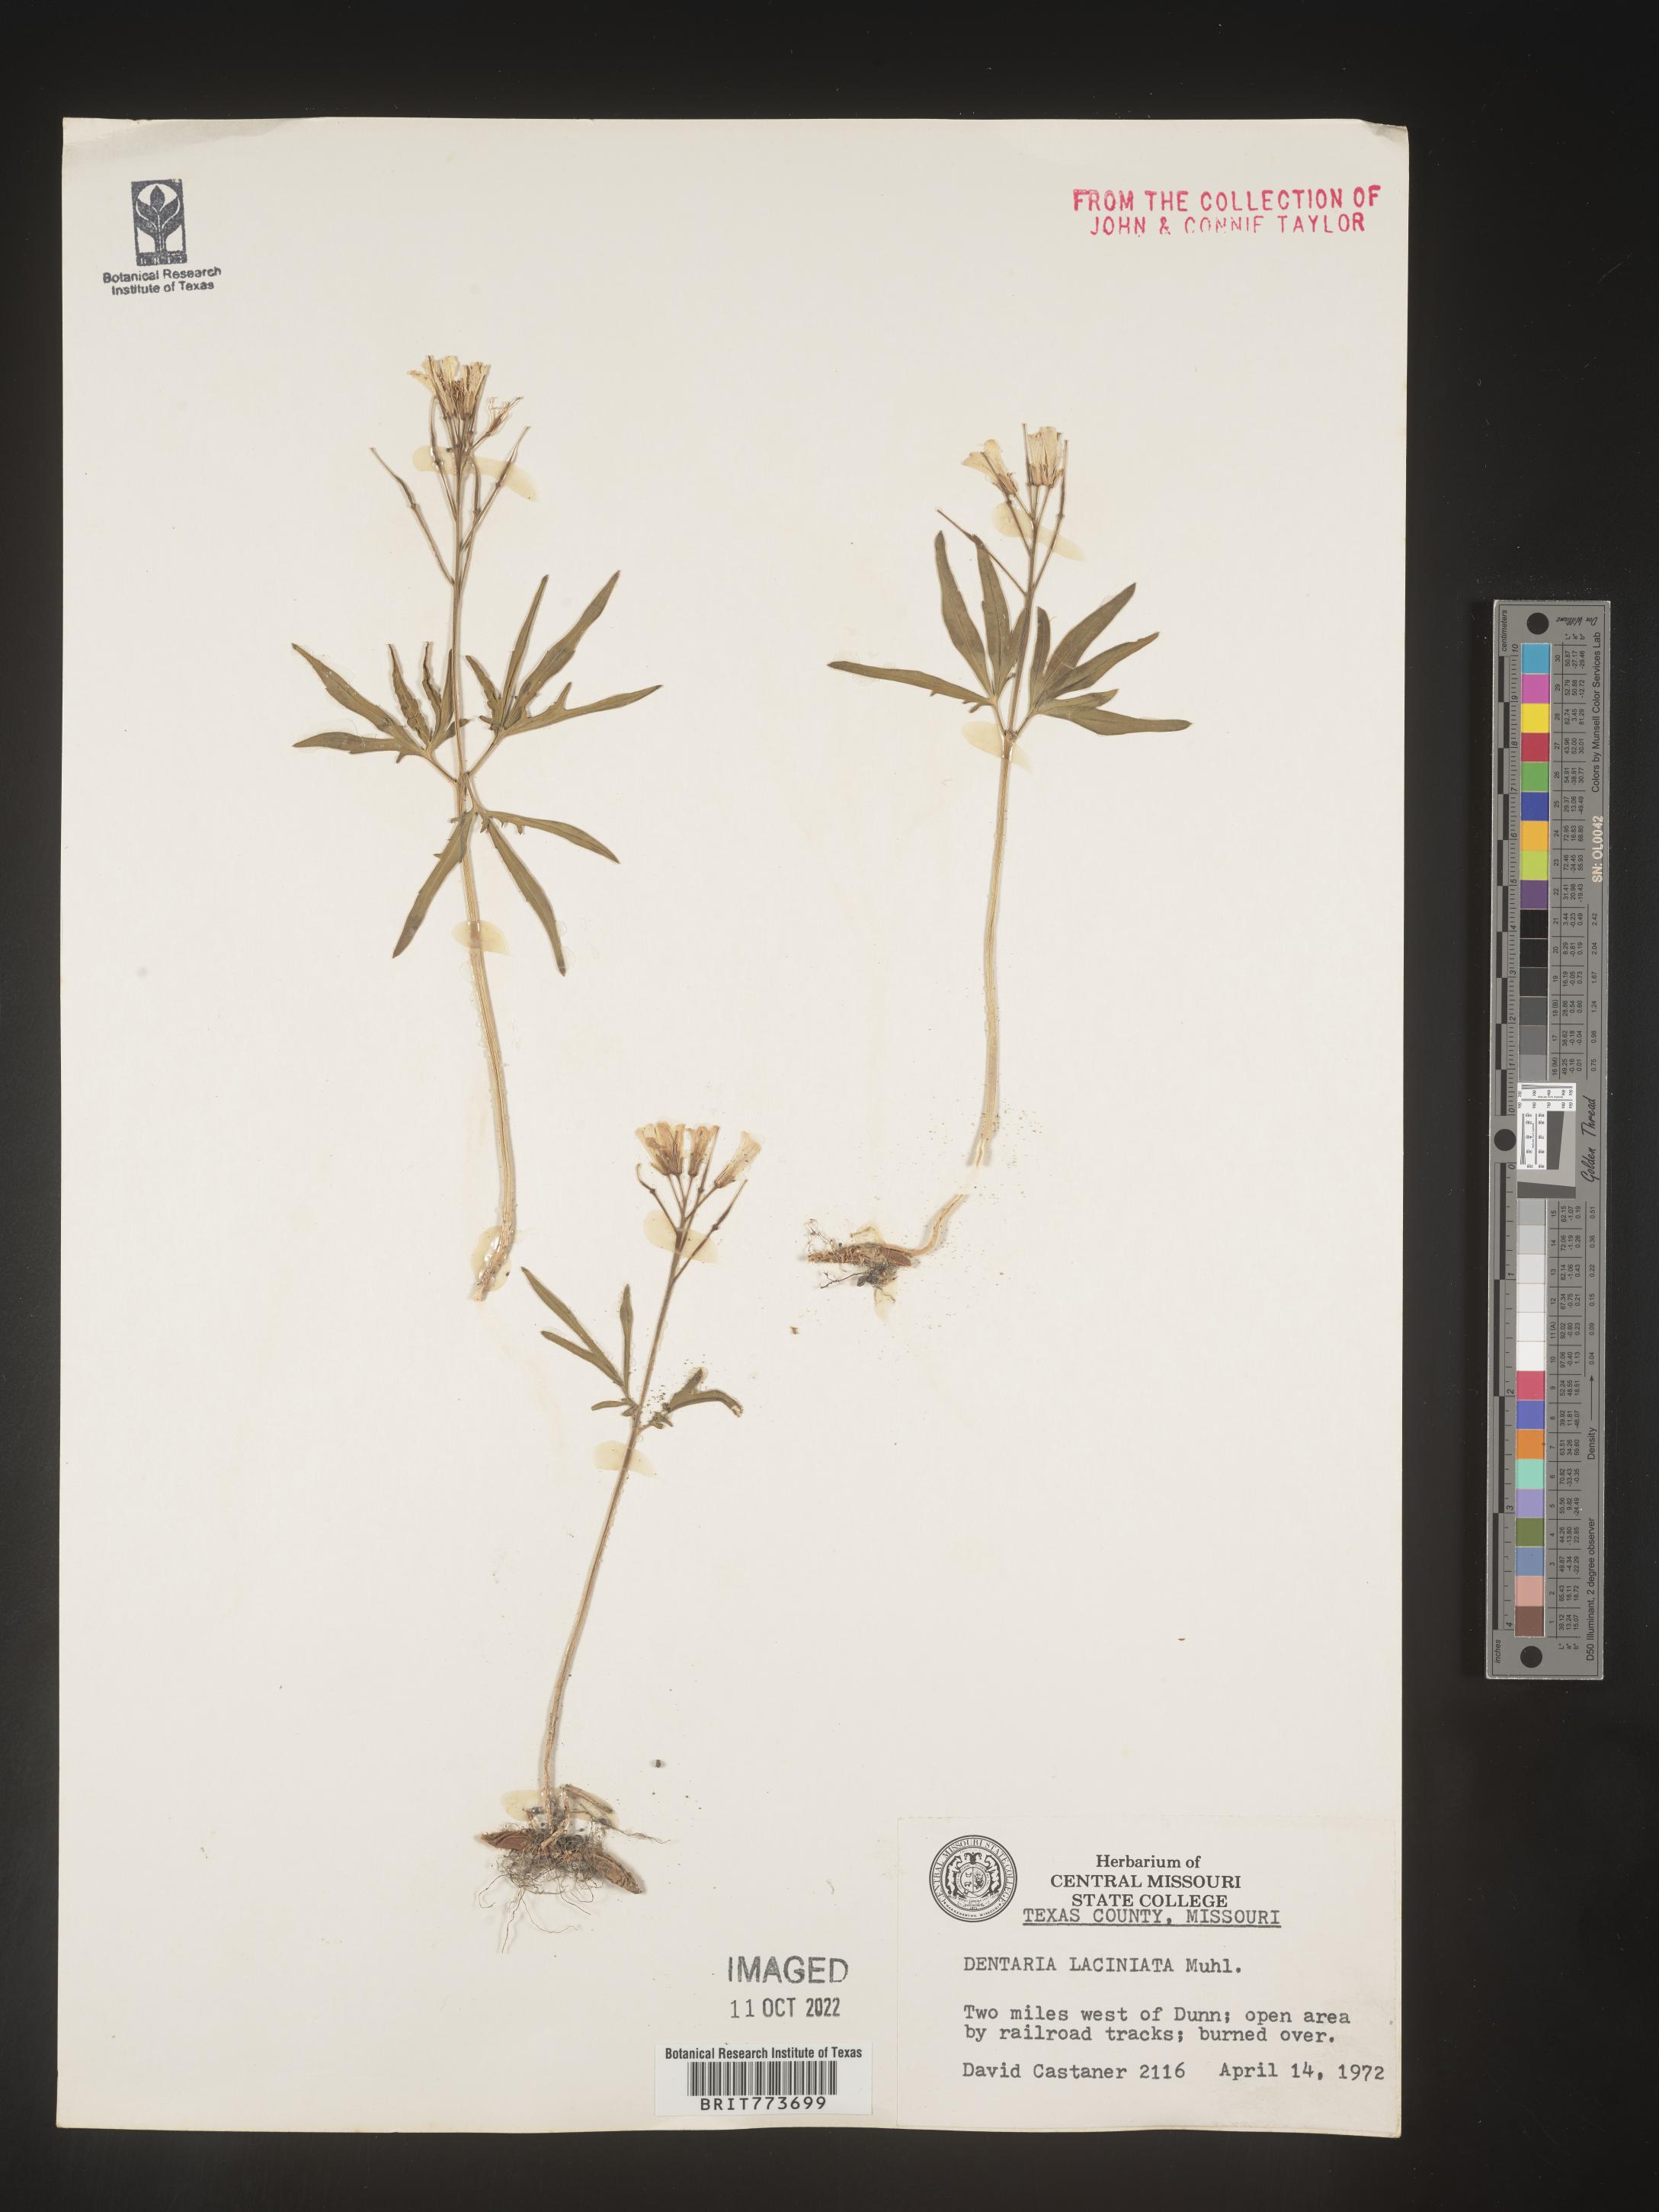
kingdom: Plantae
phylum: Tracheophyta
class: Magnoliopsida
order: Brassicales
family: Brassicaceae
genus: Rorippa
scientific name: Rorippa laciniata
